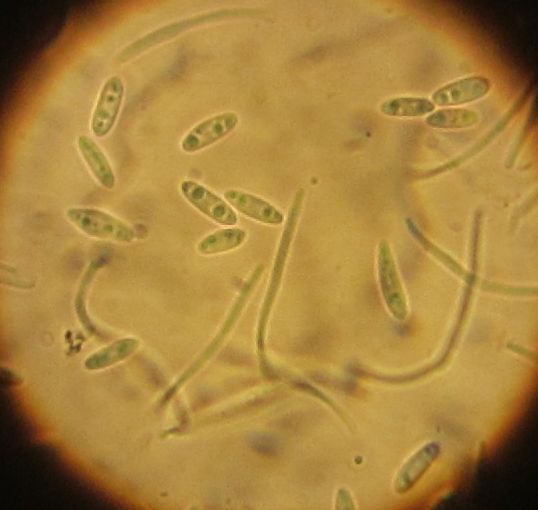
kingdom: Fungi
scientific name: Fungi
